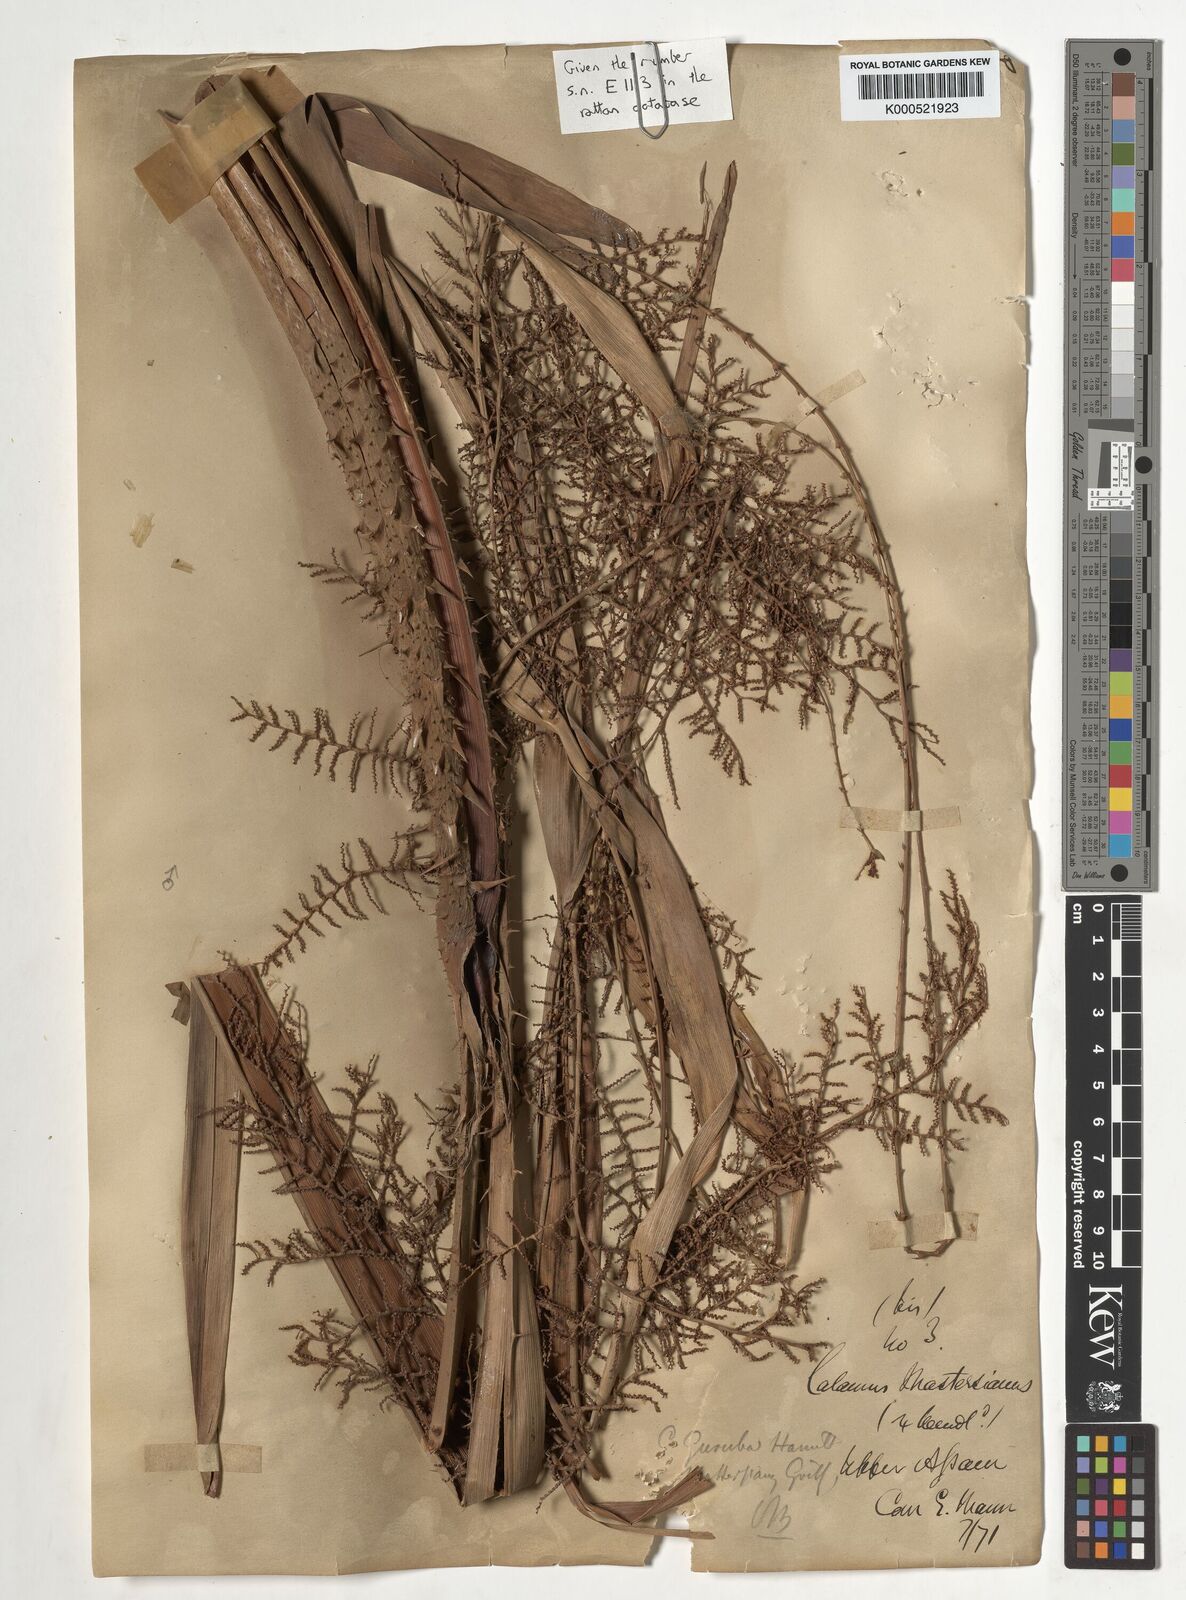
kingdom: Plantae
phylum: Tracheophyta
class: Liliopsida
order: Arecales
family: Arecaceae
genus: Calamus
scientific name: Calamus
